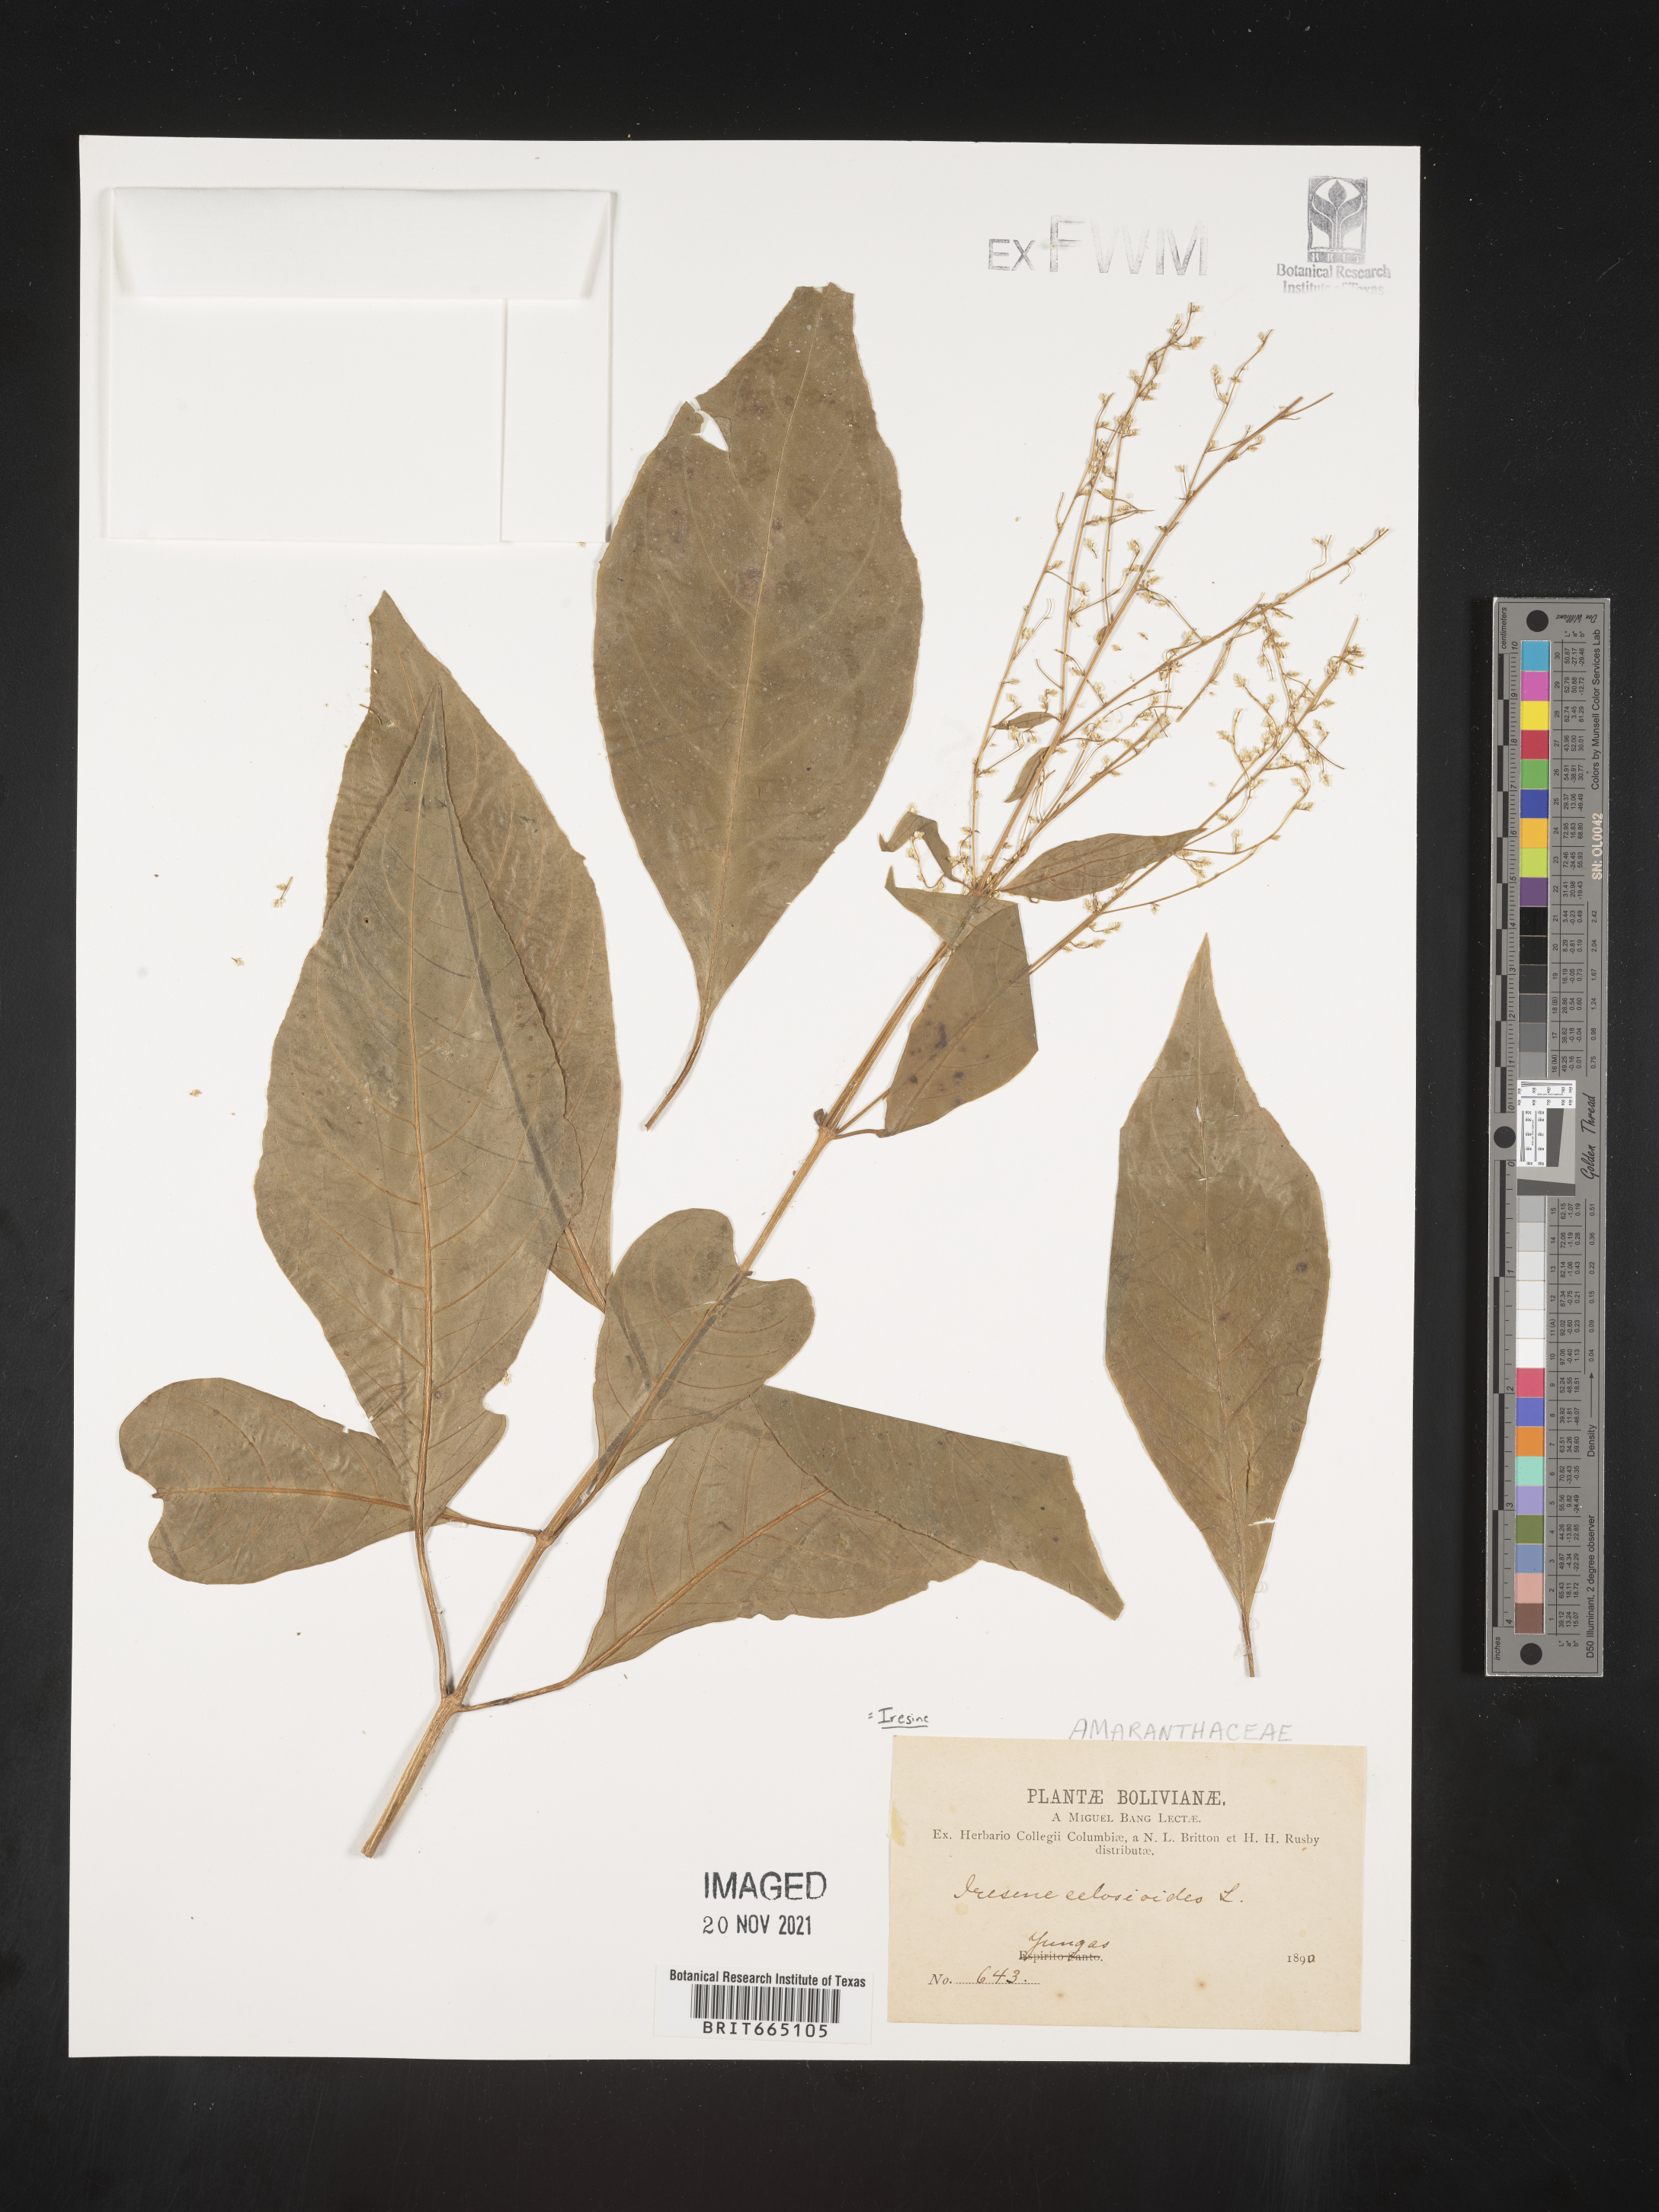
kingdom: Plantae
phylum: Tracheophyta
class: Magnoliopsida
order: Caryophyllales
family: Amaranthaceae
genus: Iresine
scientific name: Iresine
